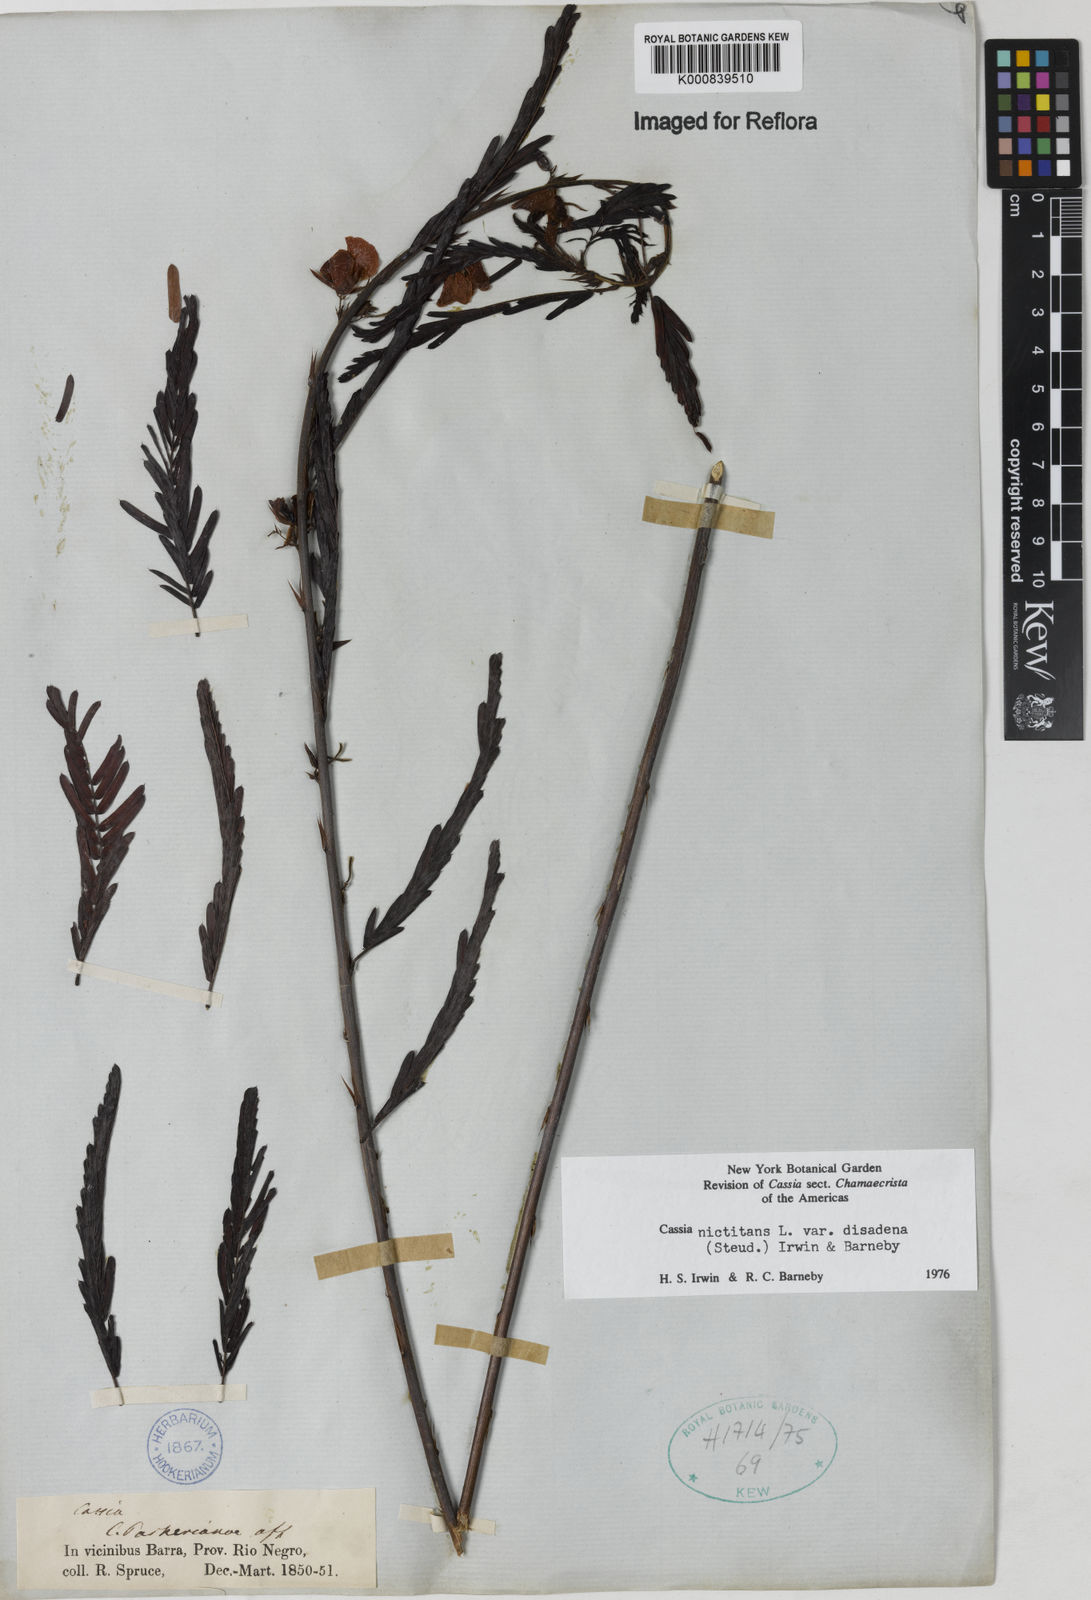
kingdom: Plantae
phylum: Tracheophyta
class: Magnoliopsida
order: Fabales
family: Fabaceae
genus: Chamaecrista
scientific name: Chamaecrista nictitans
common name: Sensitive cassia
